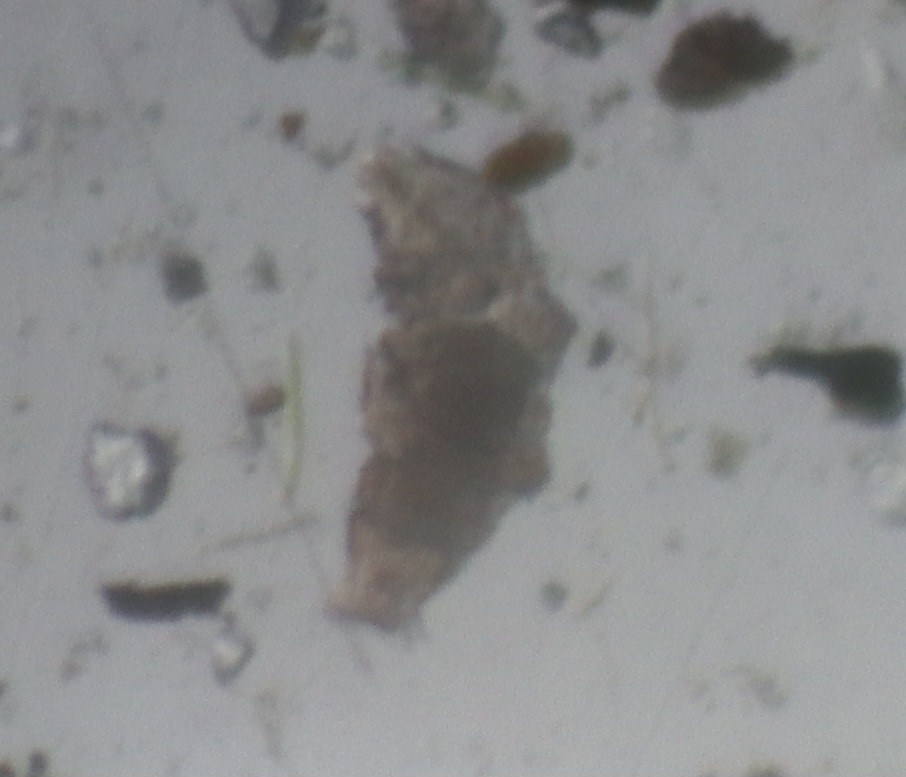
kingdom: Animalia
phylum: Tardigrada
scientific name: Tardigrada
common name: Bjørnedyr
